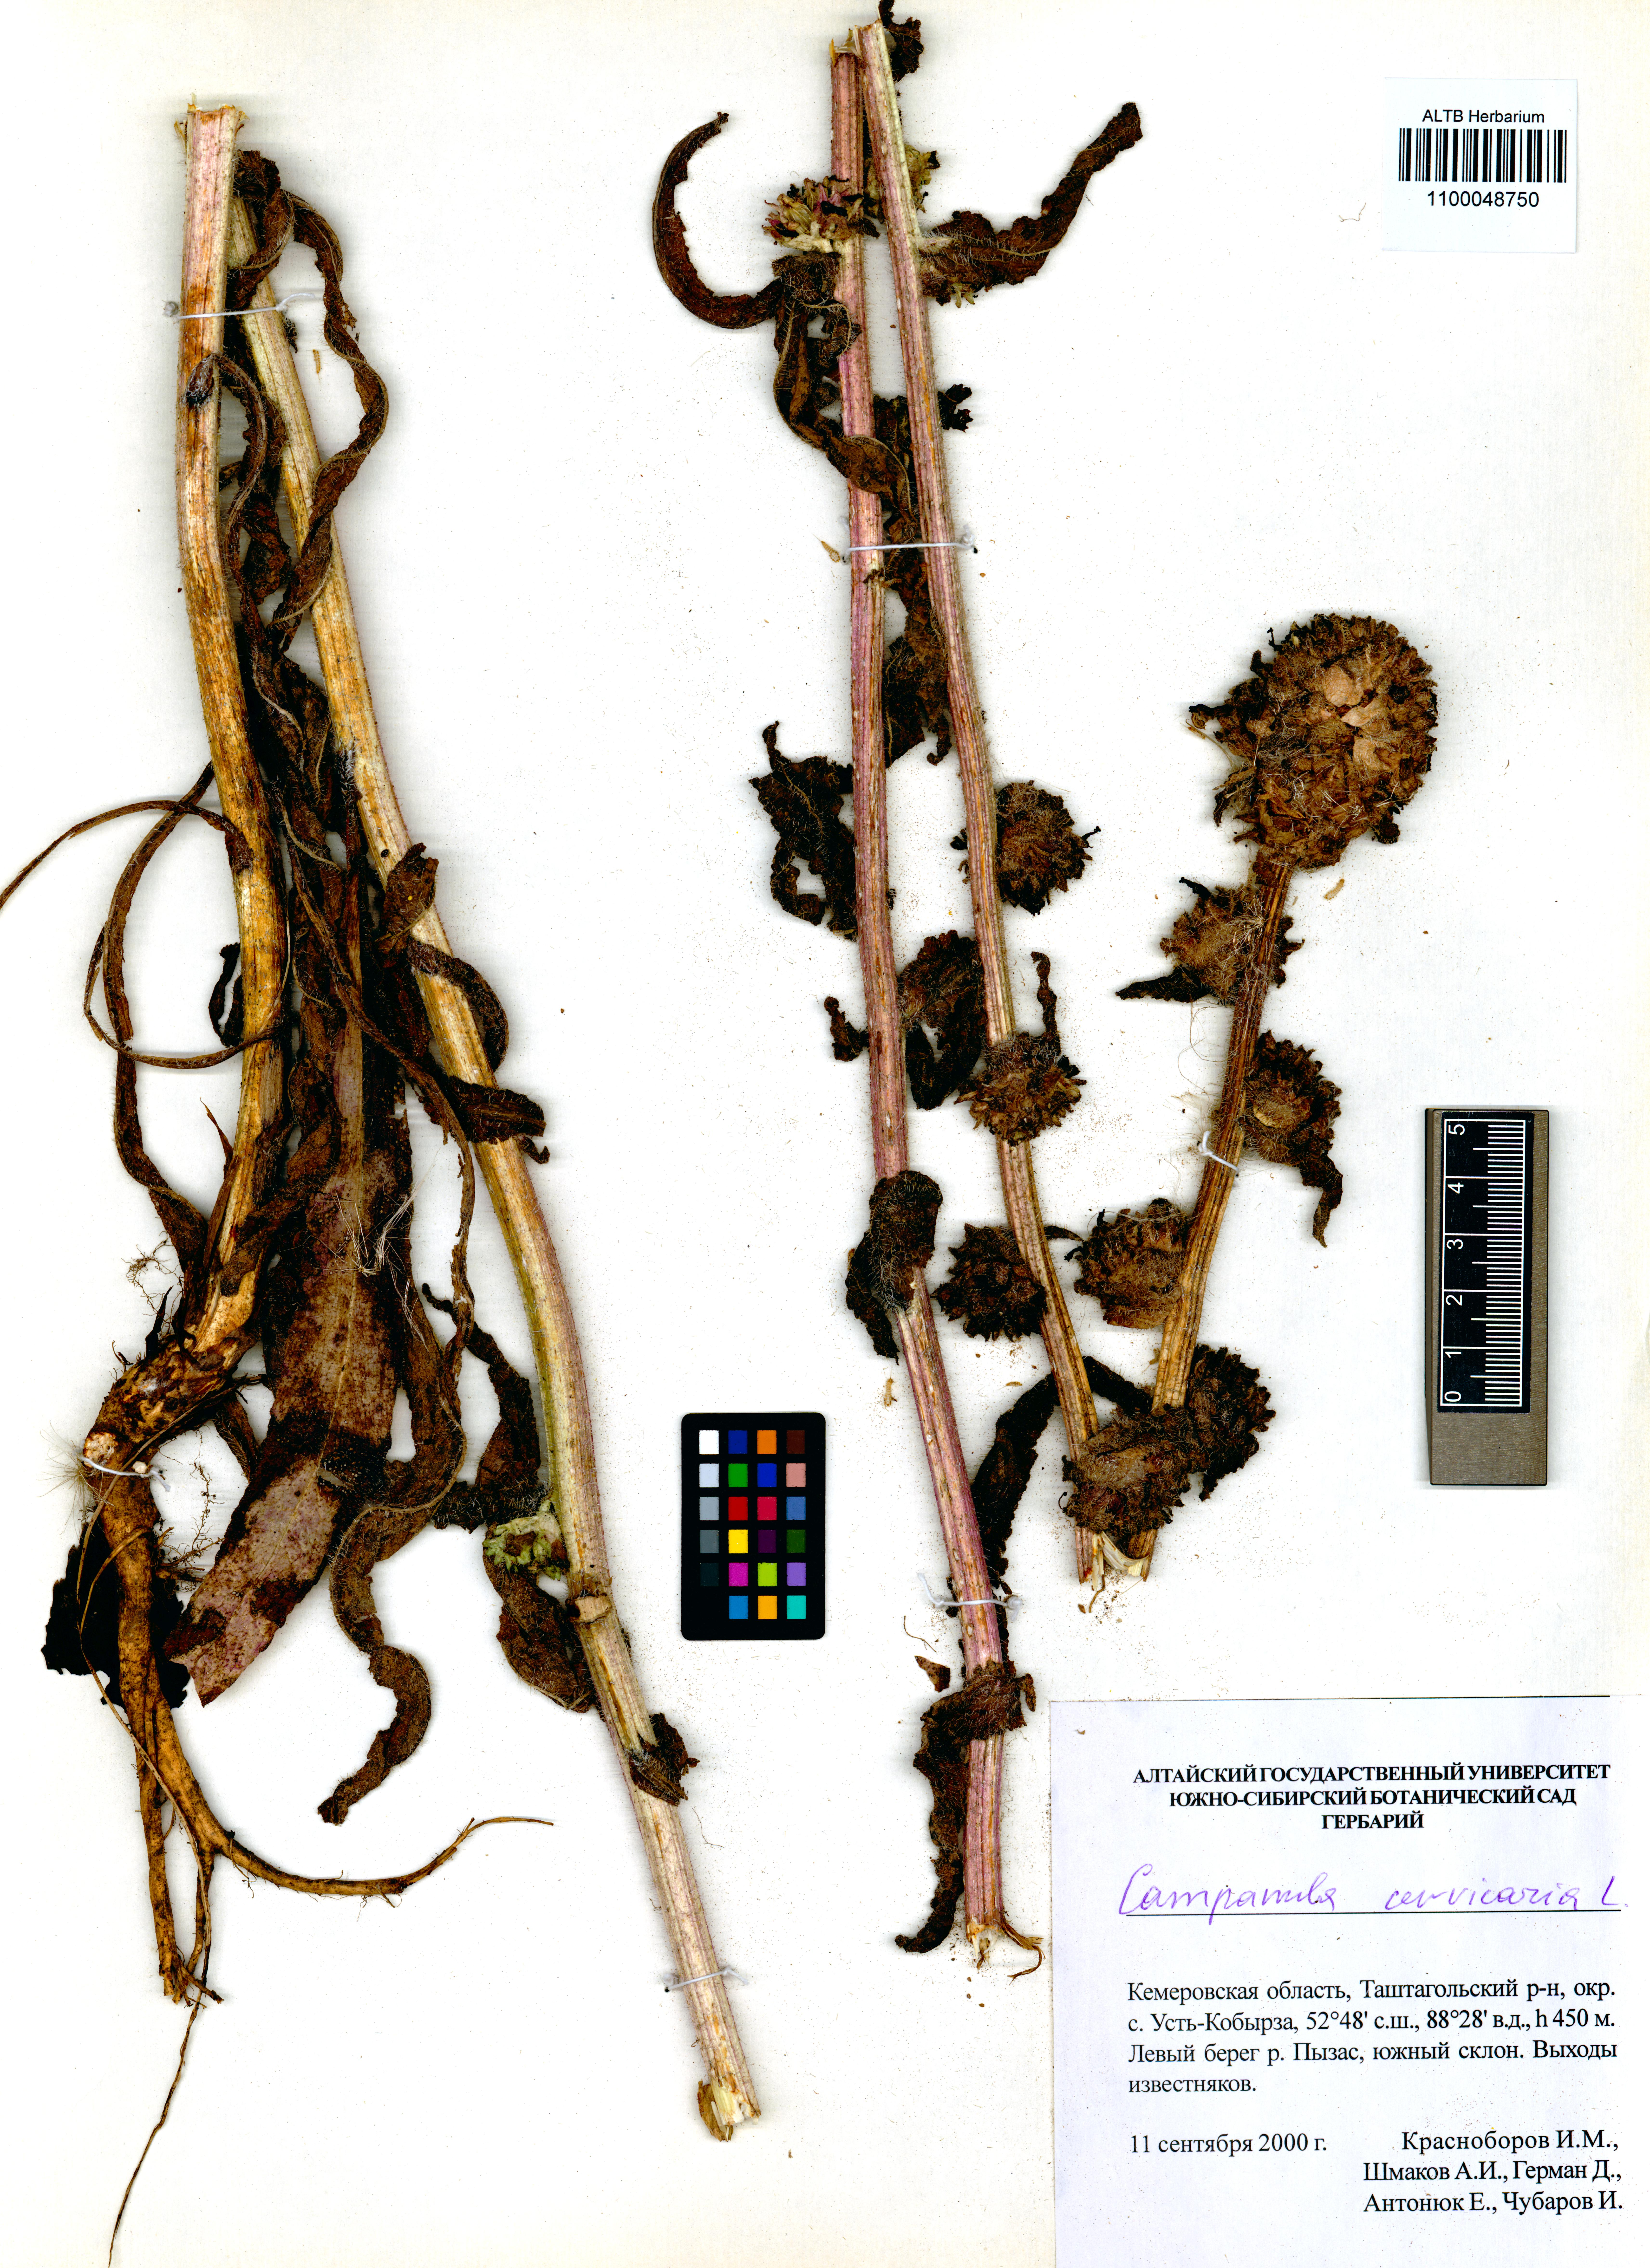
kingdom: Plantae
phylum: Tracheophyta
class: Magnoliopsida
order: Asterales
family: Campanulaceae
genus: Campanula
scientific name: Campanula cervicaria
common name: Bristly bellflower
